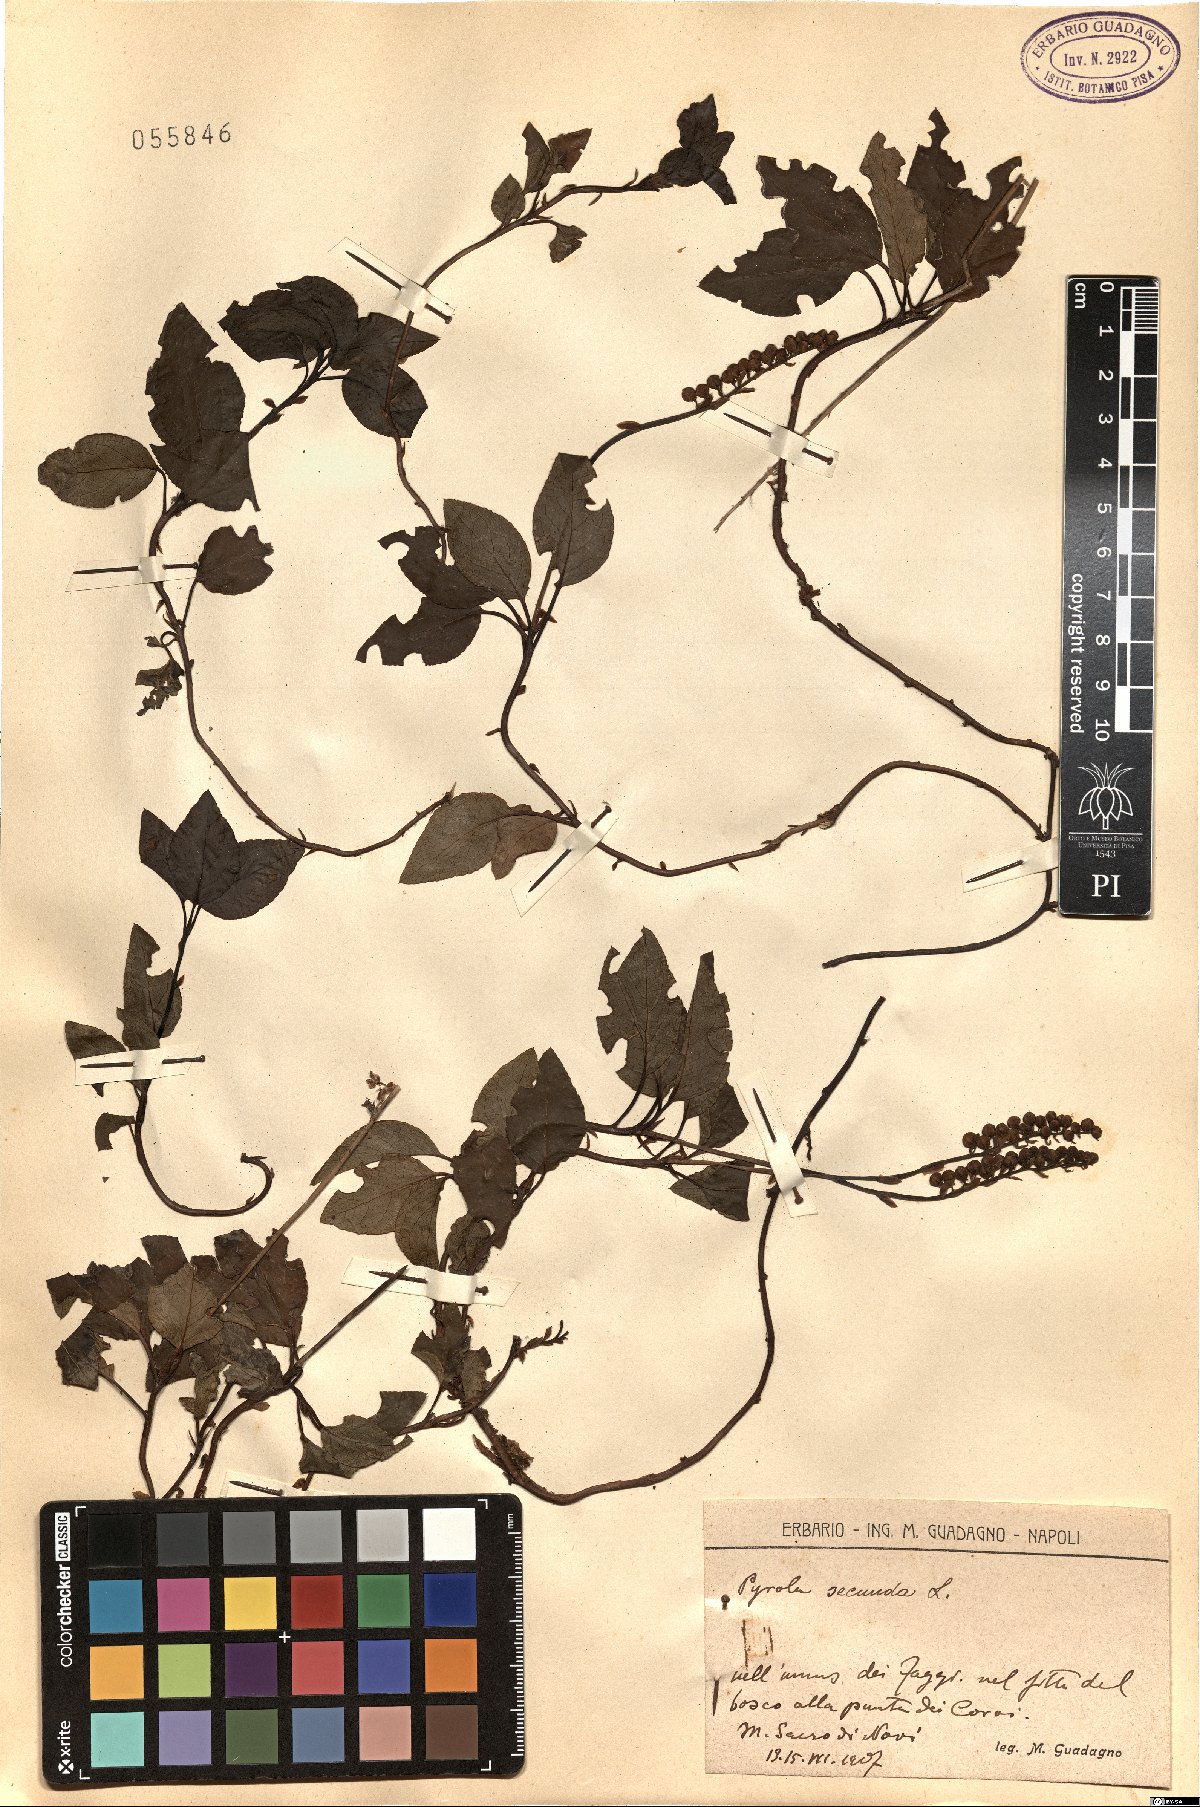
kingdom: Plantae
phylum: Tracheophyta
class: Magnoliopsida
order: Ericales
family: Ericaceae
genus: Orthilia
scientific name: Orthilia secunda
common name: One-sided orthilia
